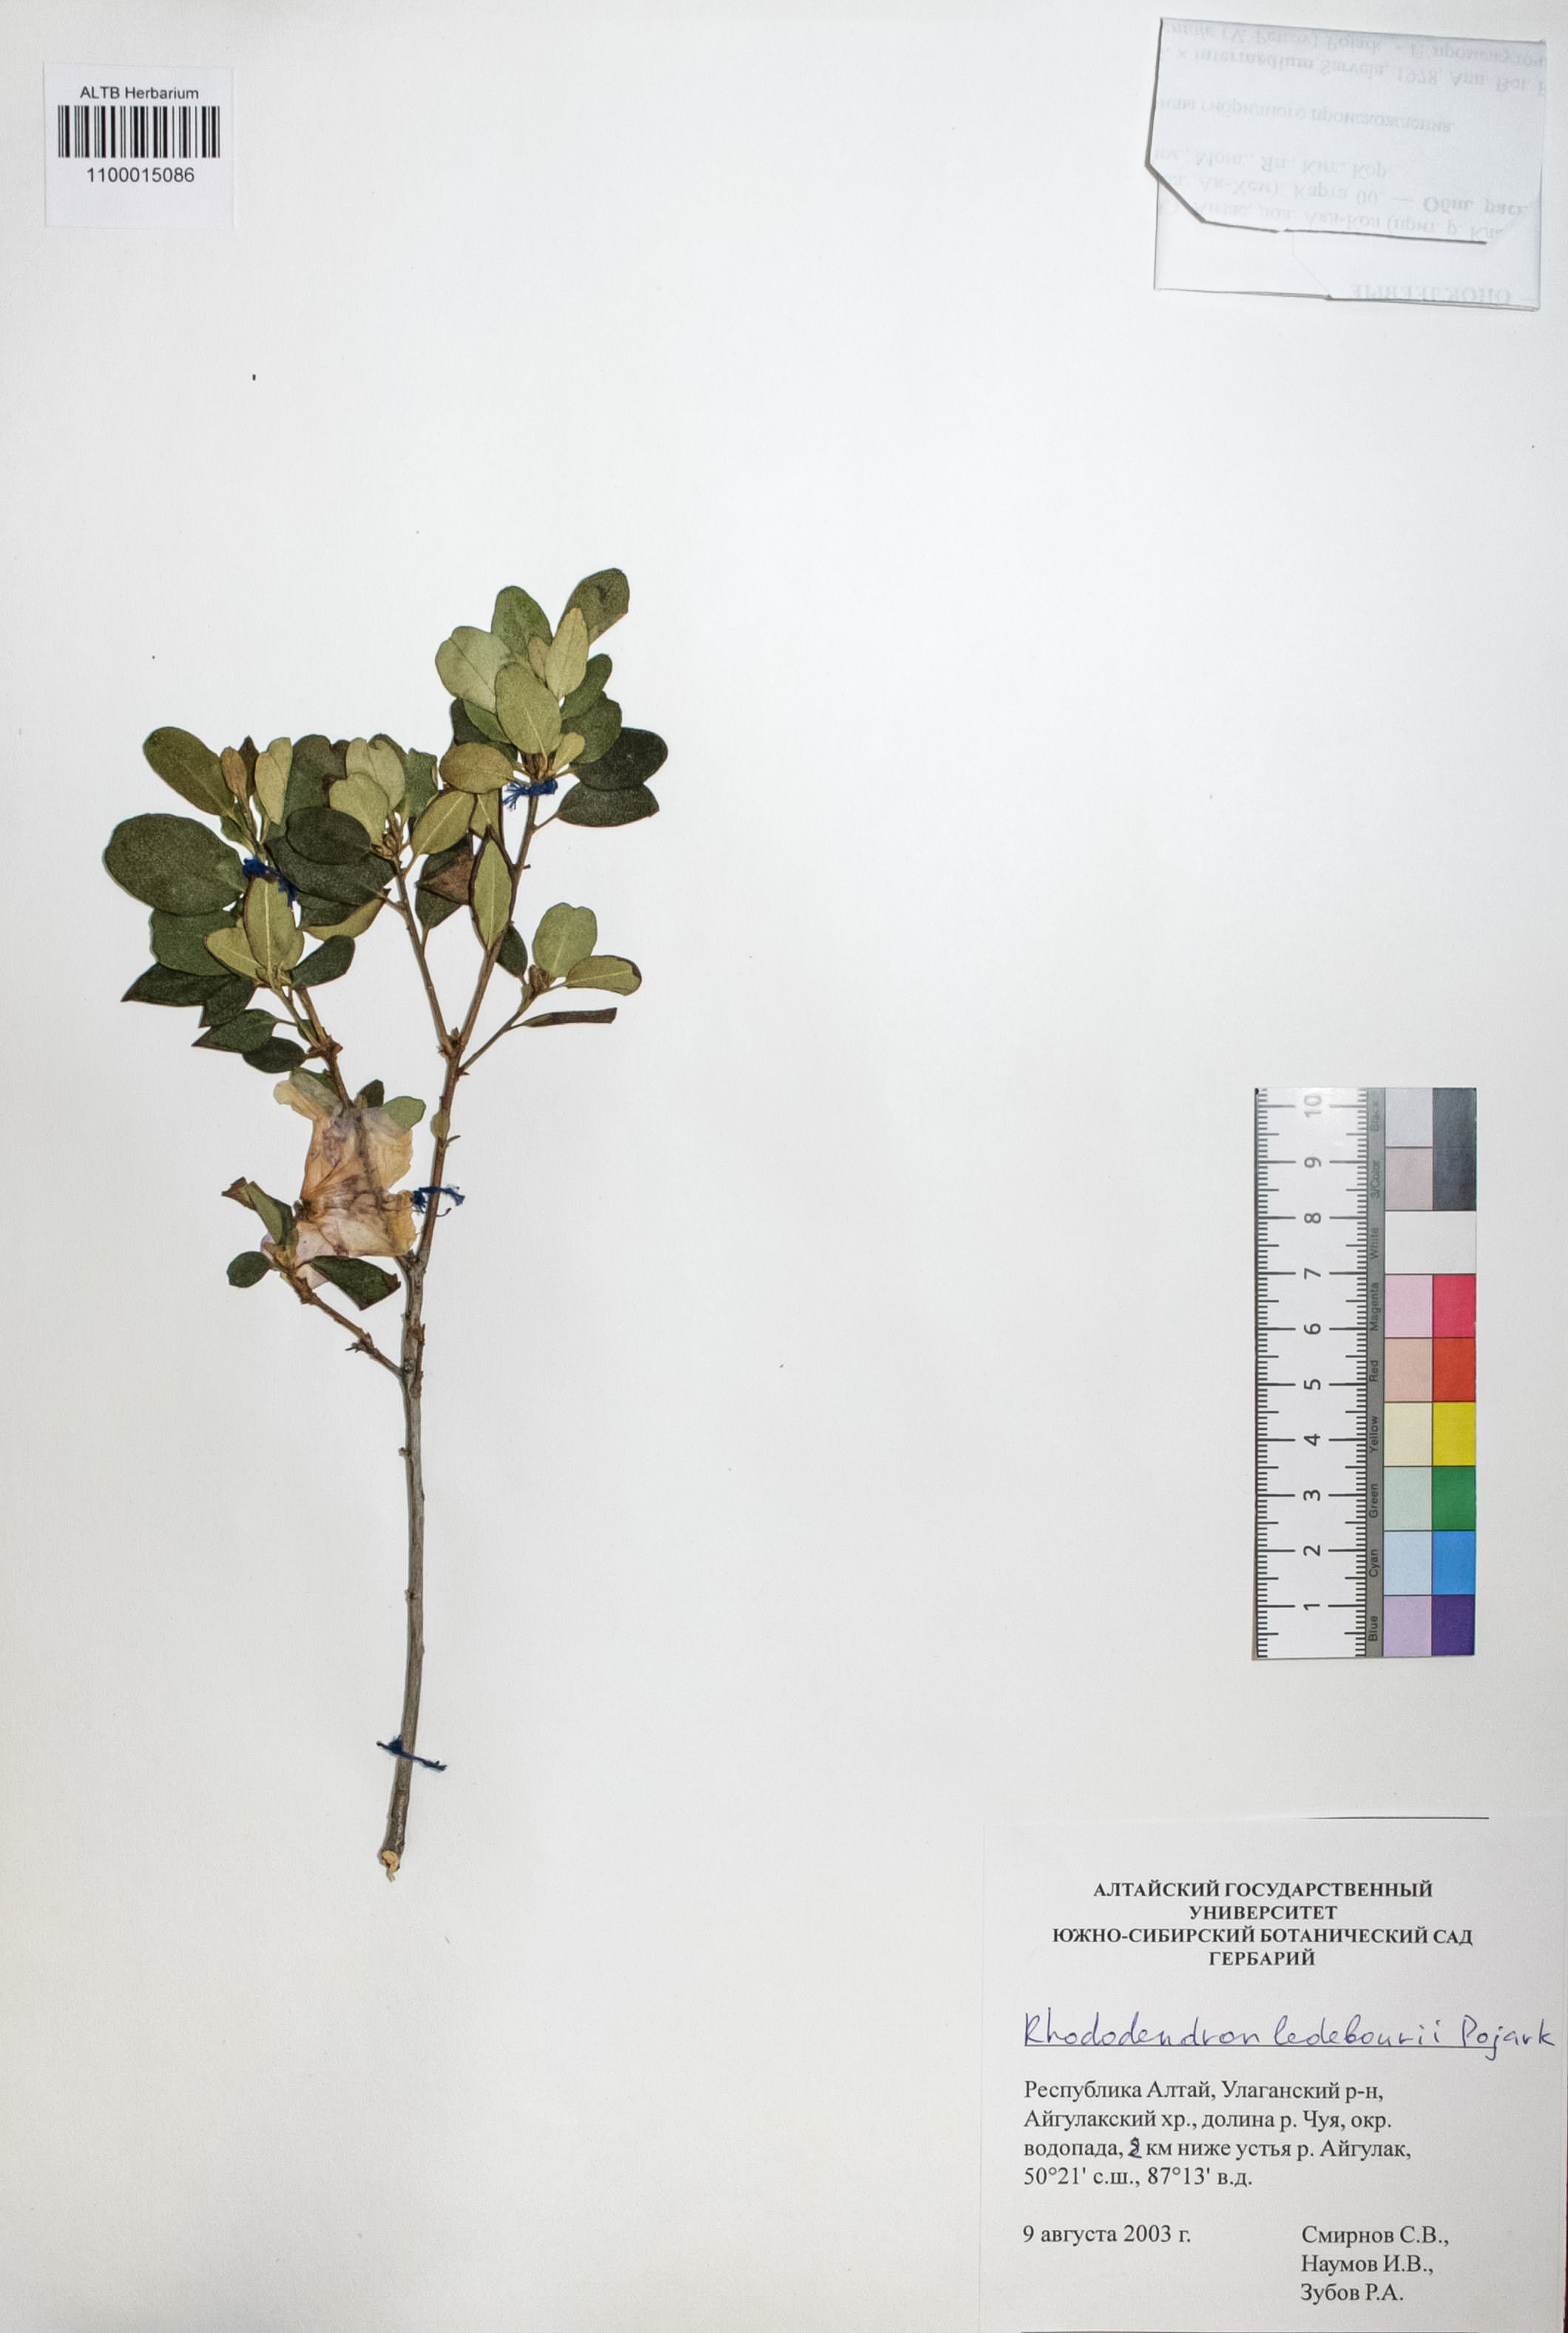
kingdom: Plantae
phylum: Tracheophyta
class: Magnoliopsida
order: Ericales
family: Ericaceae
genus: Rhododendron
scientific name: Rhododendron dauricum
